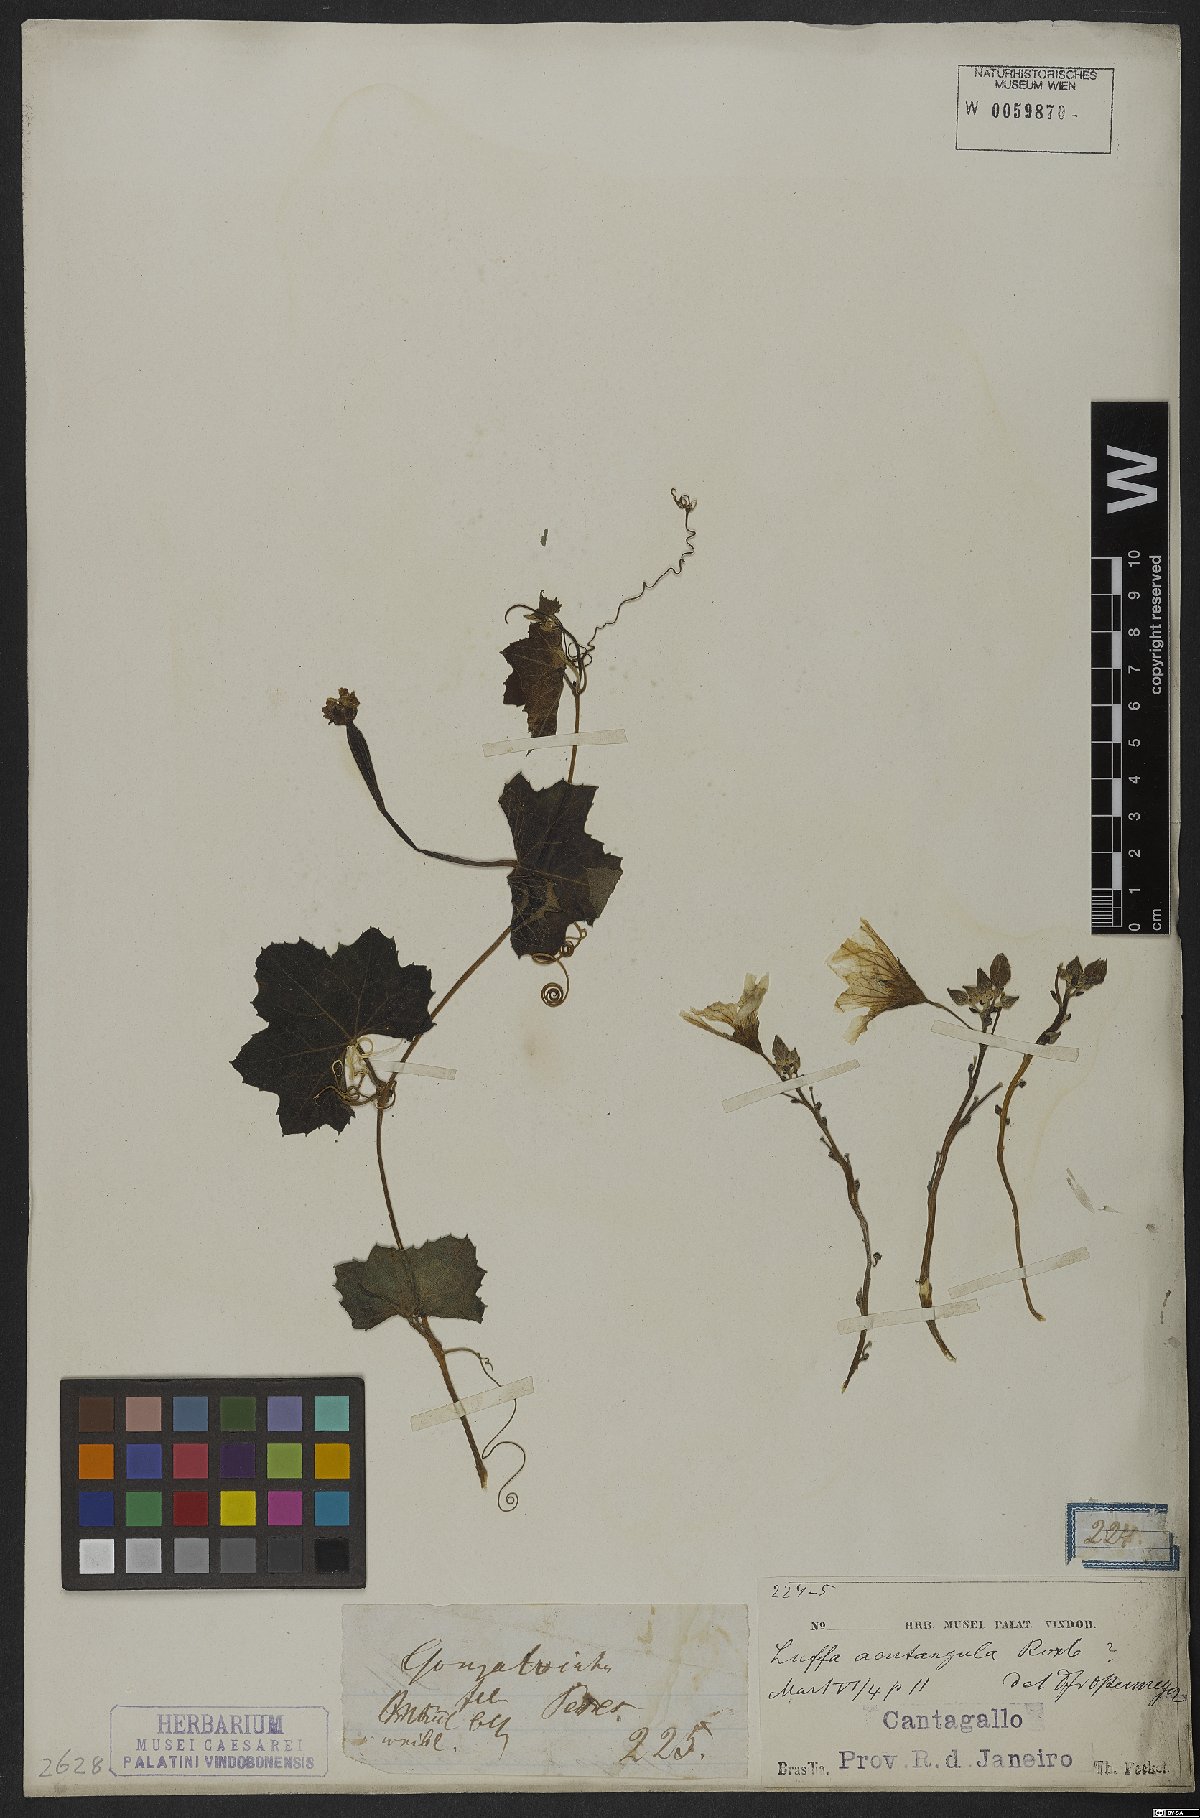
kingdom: Plantae
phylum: Tracheophyta
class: Magnoliopsida
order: Cucurbitales
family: Cucurbitaceae
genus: Luffa
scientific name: Luffa acutangula
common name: Sinkwa towelsponge
